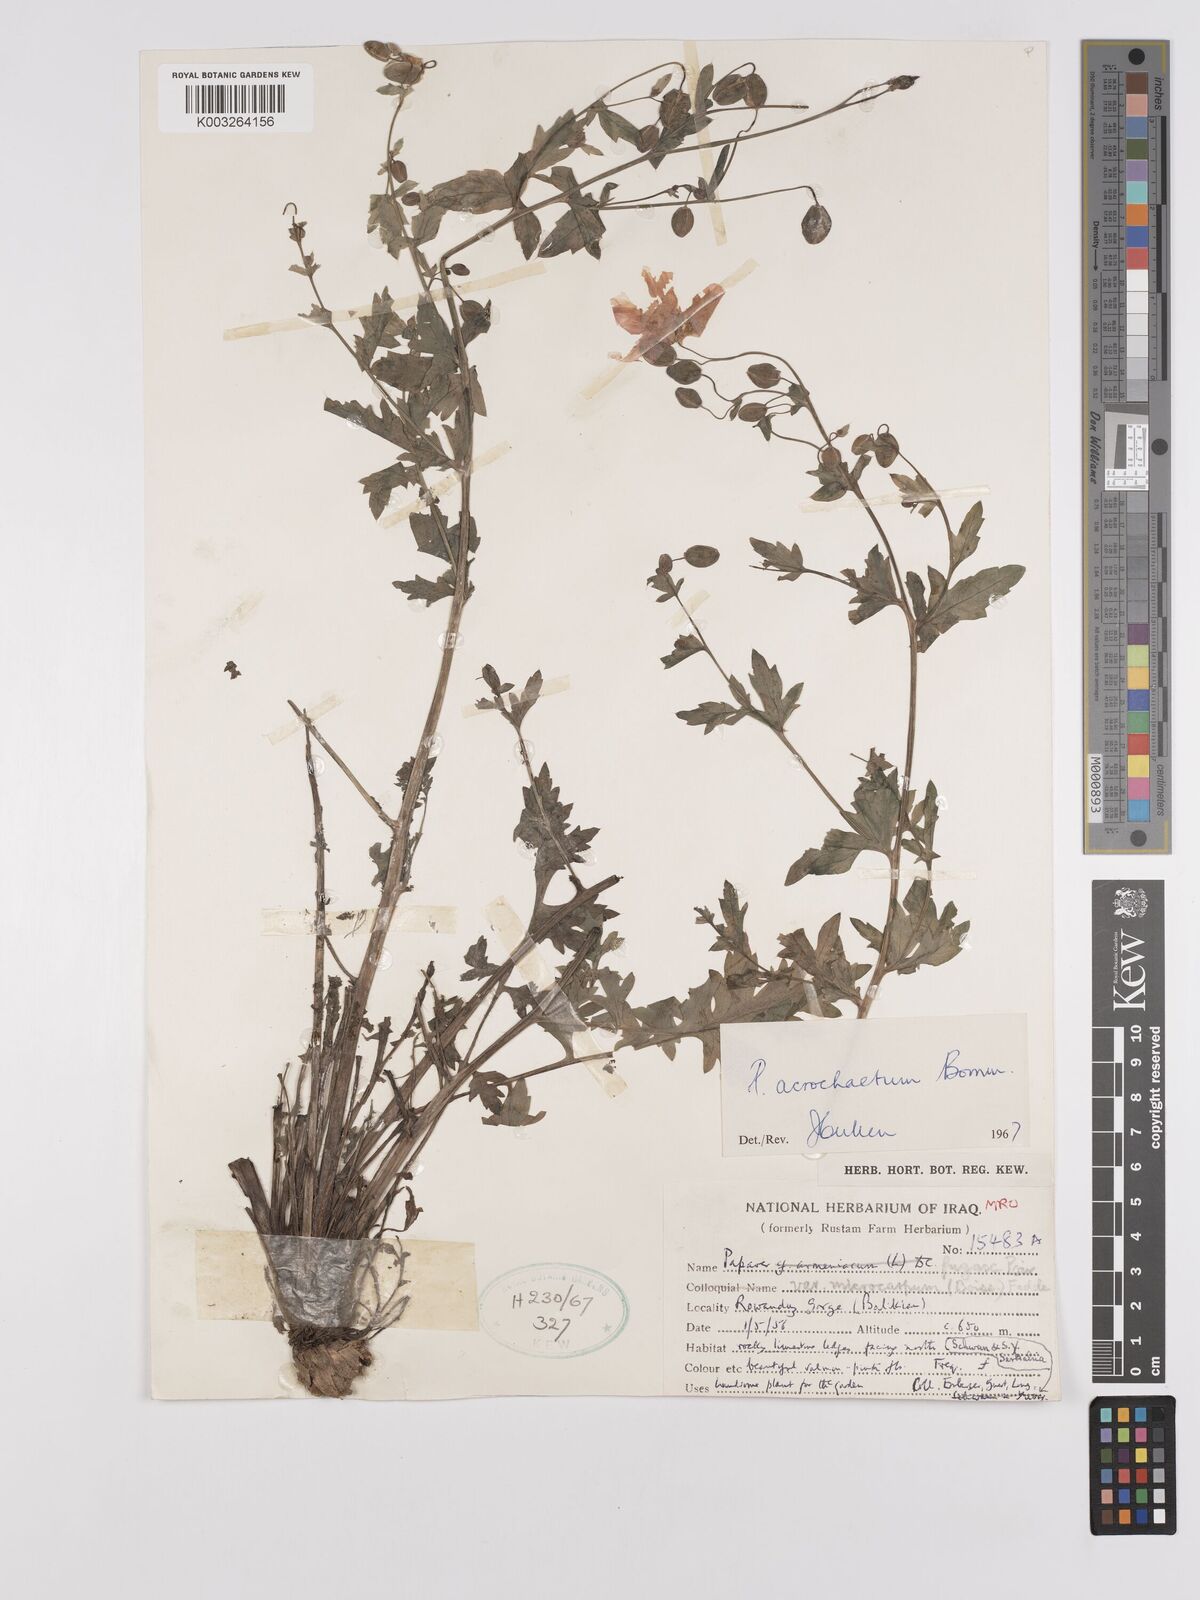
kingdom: Plantae
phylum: Tracheophyta
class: Magnoliopsida
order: Ranunculales
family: Papaveraceae
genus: Papaver
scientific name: Papaver acrochaetum
